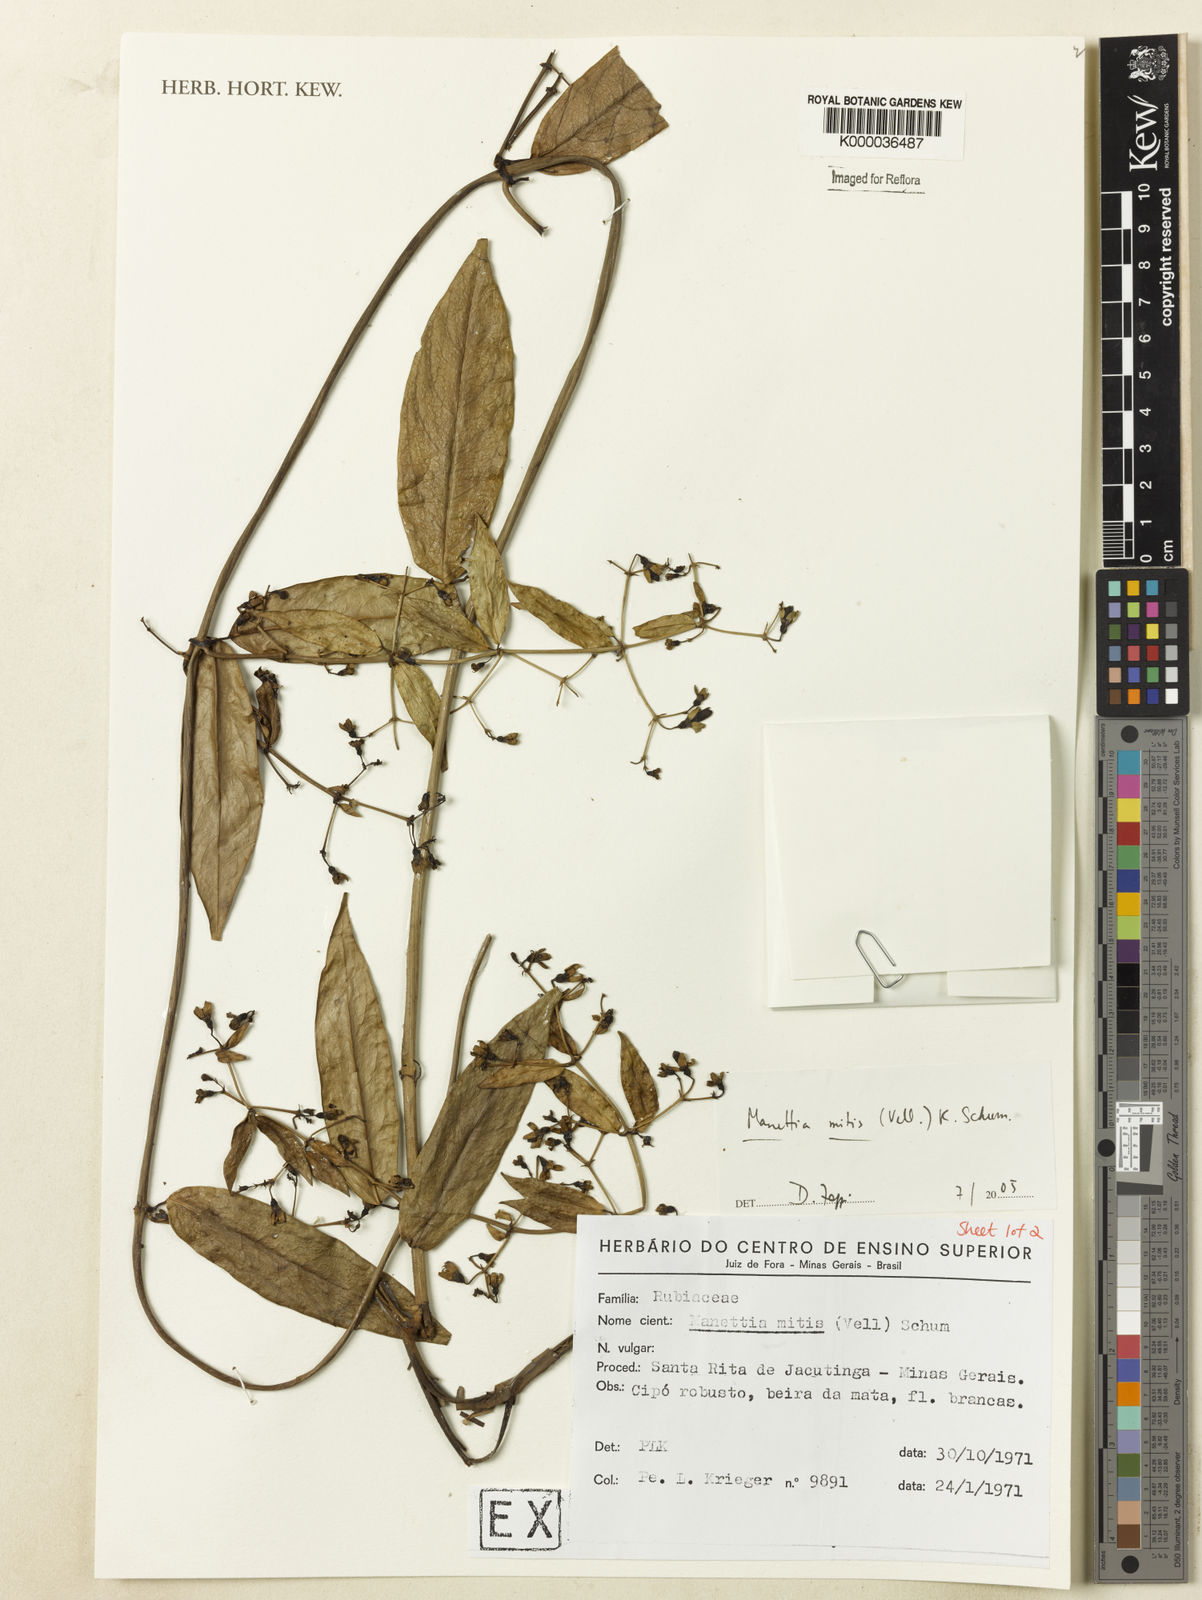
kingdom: Plantae
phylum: Tracheophyta
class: Magnoliopsida
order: Gentianales
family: Rubiaceae
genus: Manettia
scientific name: Manettia mitis
